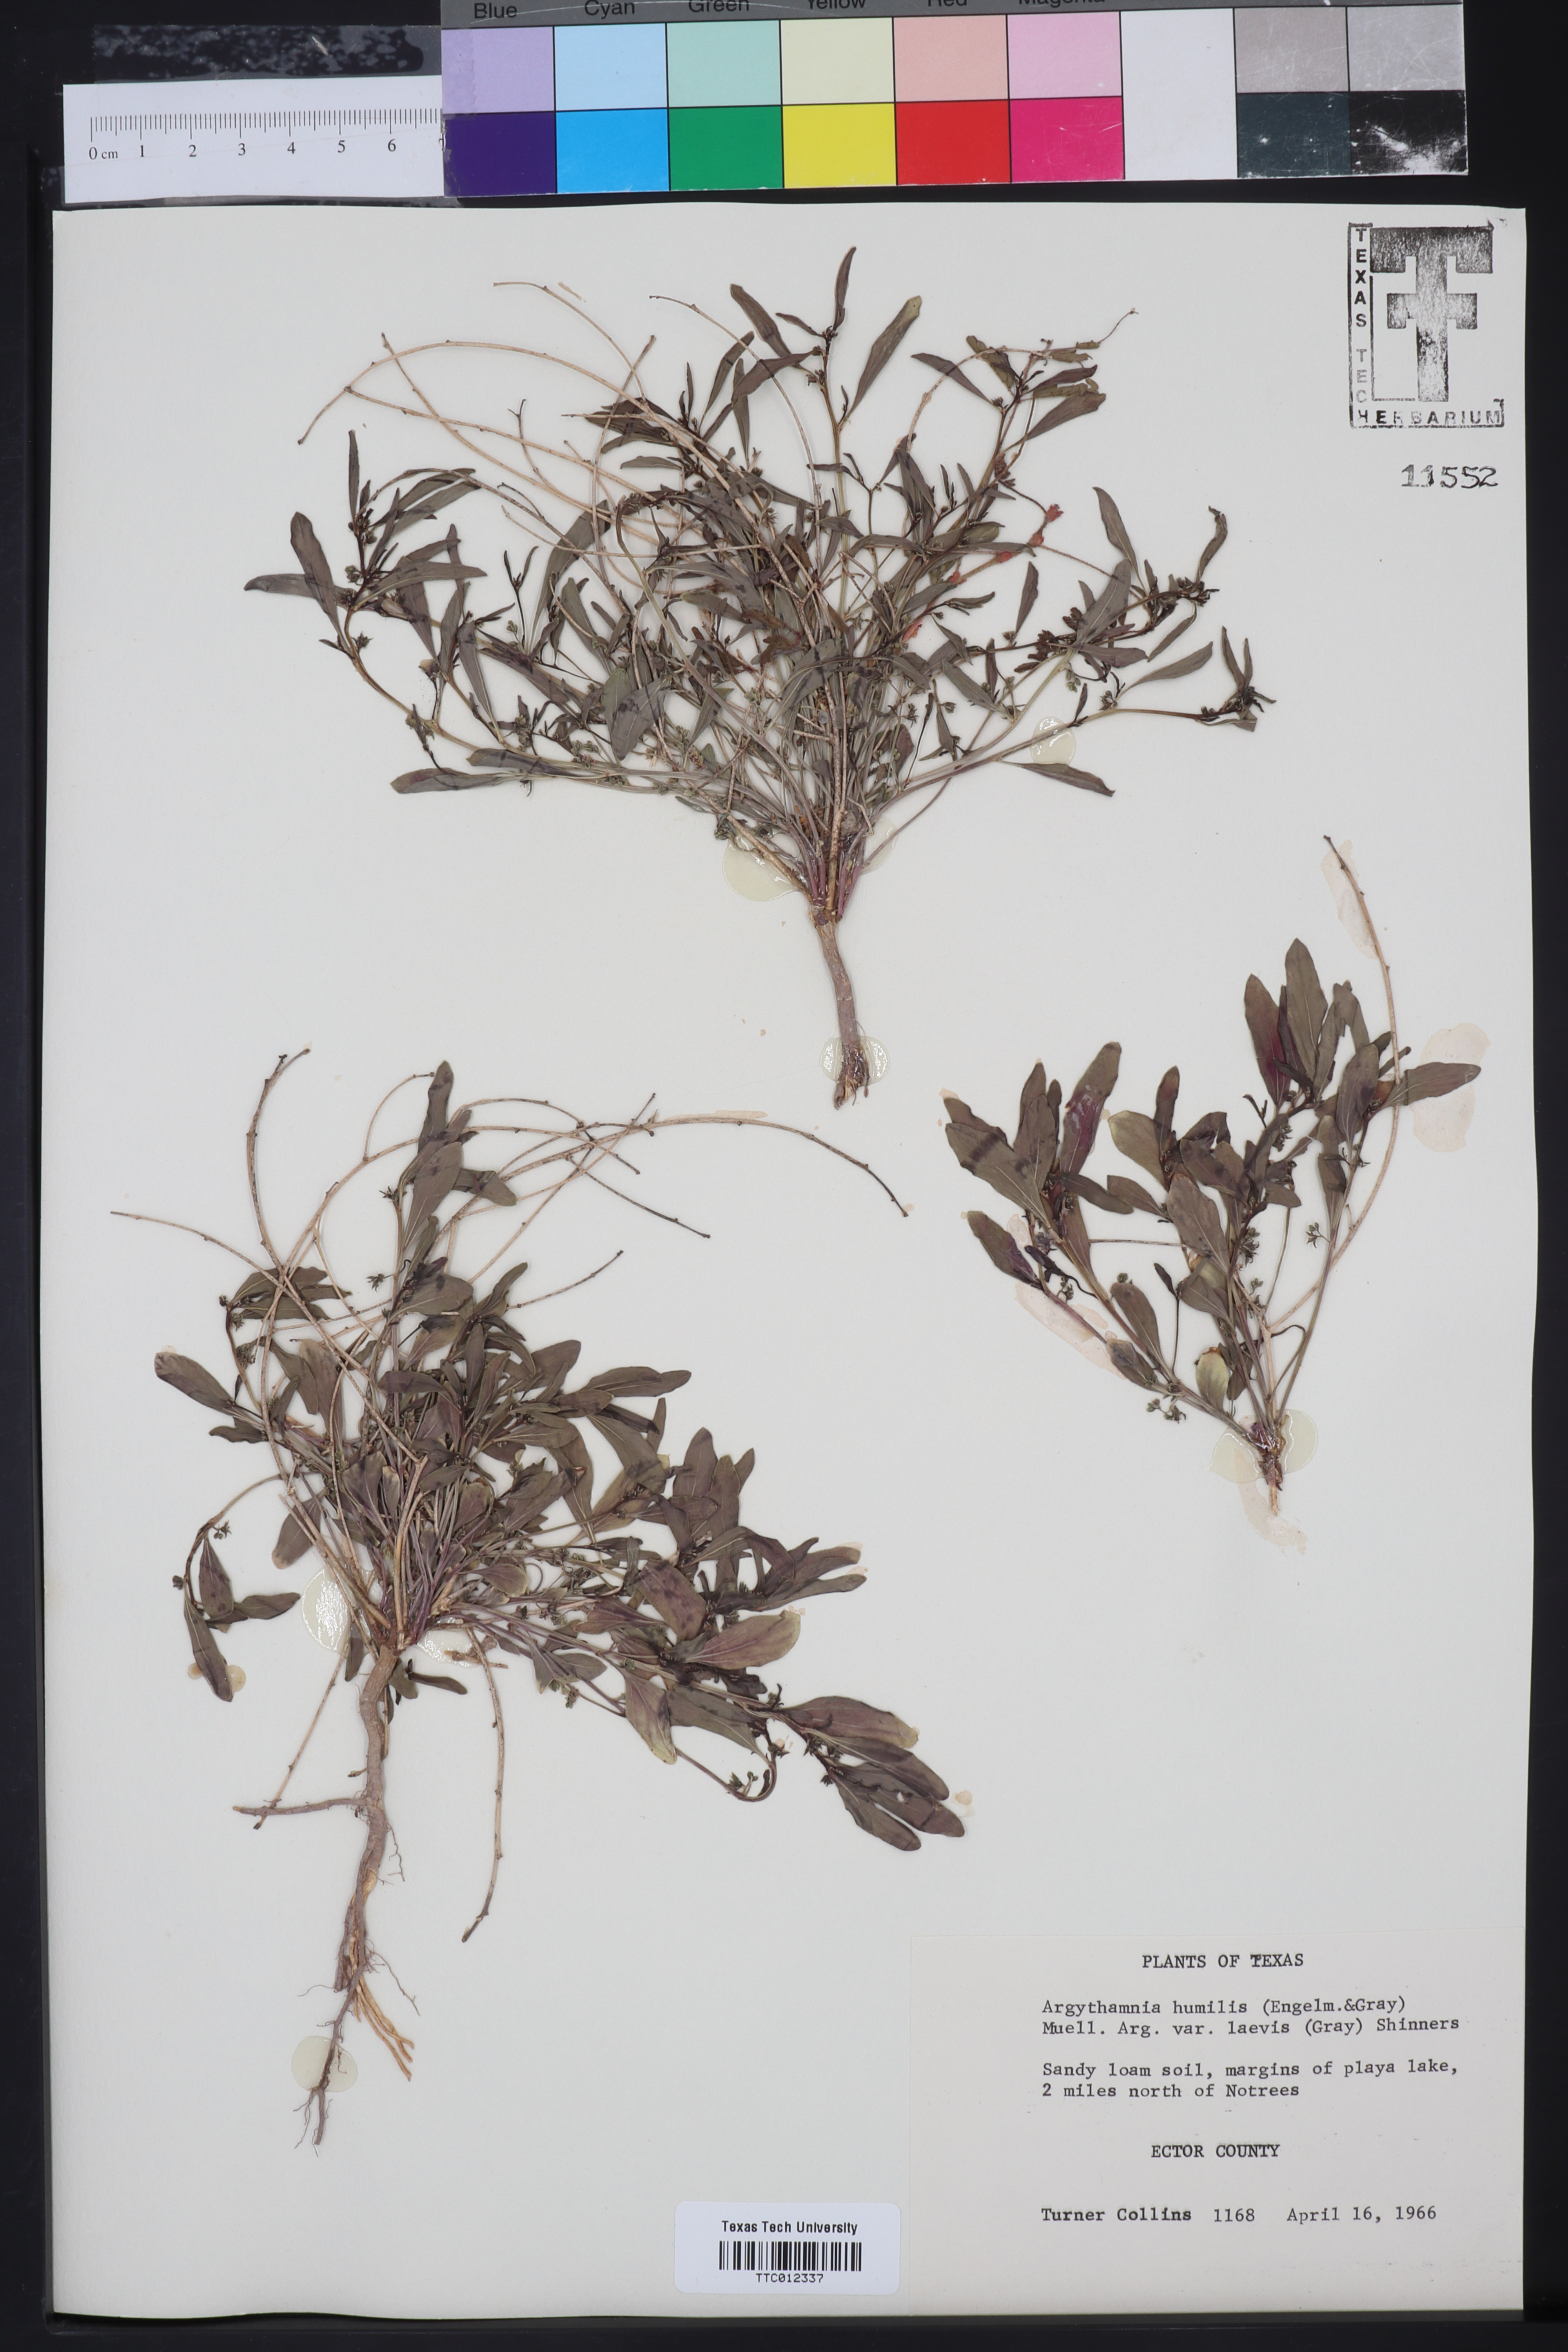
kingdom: Plantae
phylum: Tracheophyta
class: Magnoliopsida
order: Malpighiales
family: Euphorbiaceae
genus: Ditaxis
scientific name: Ditaxis humilis
